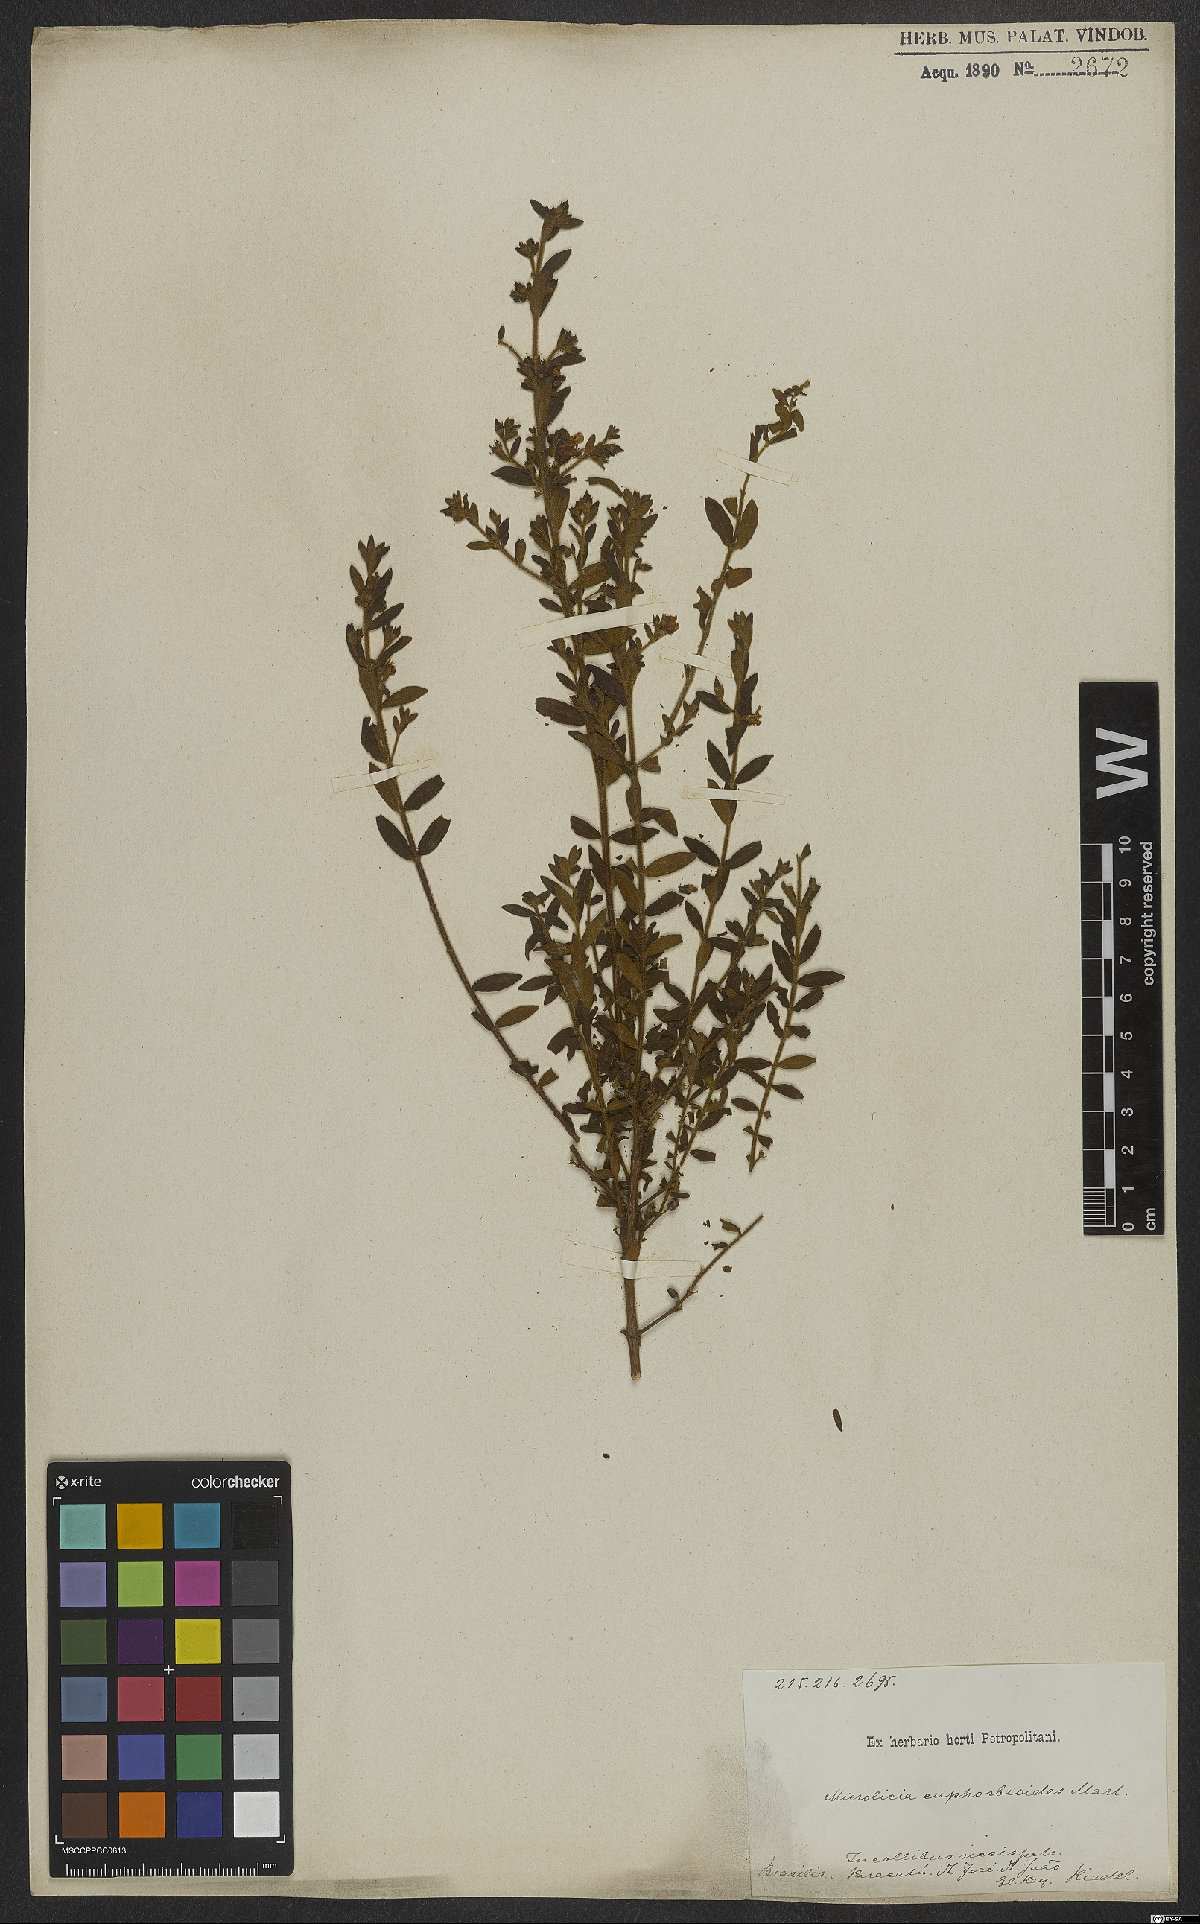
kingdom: Plantae
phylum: Tracheophyta
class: Magnoliopsida
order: Myrtales
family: Melastomataceae
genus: Microlicia
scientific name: Microlicia euphorbioides
